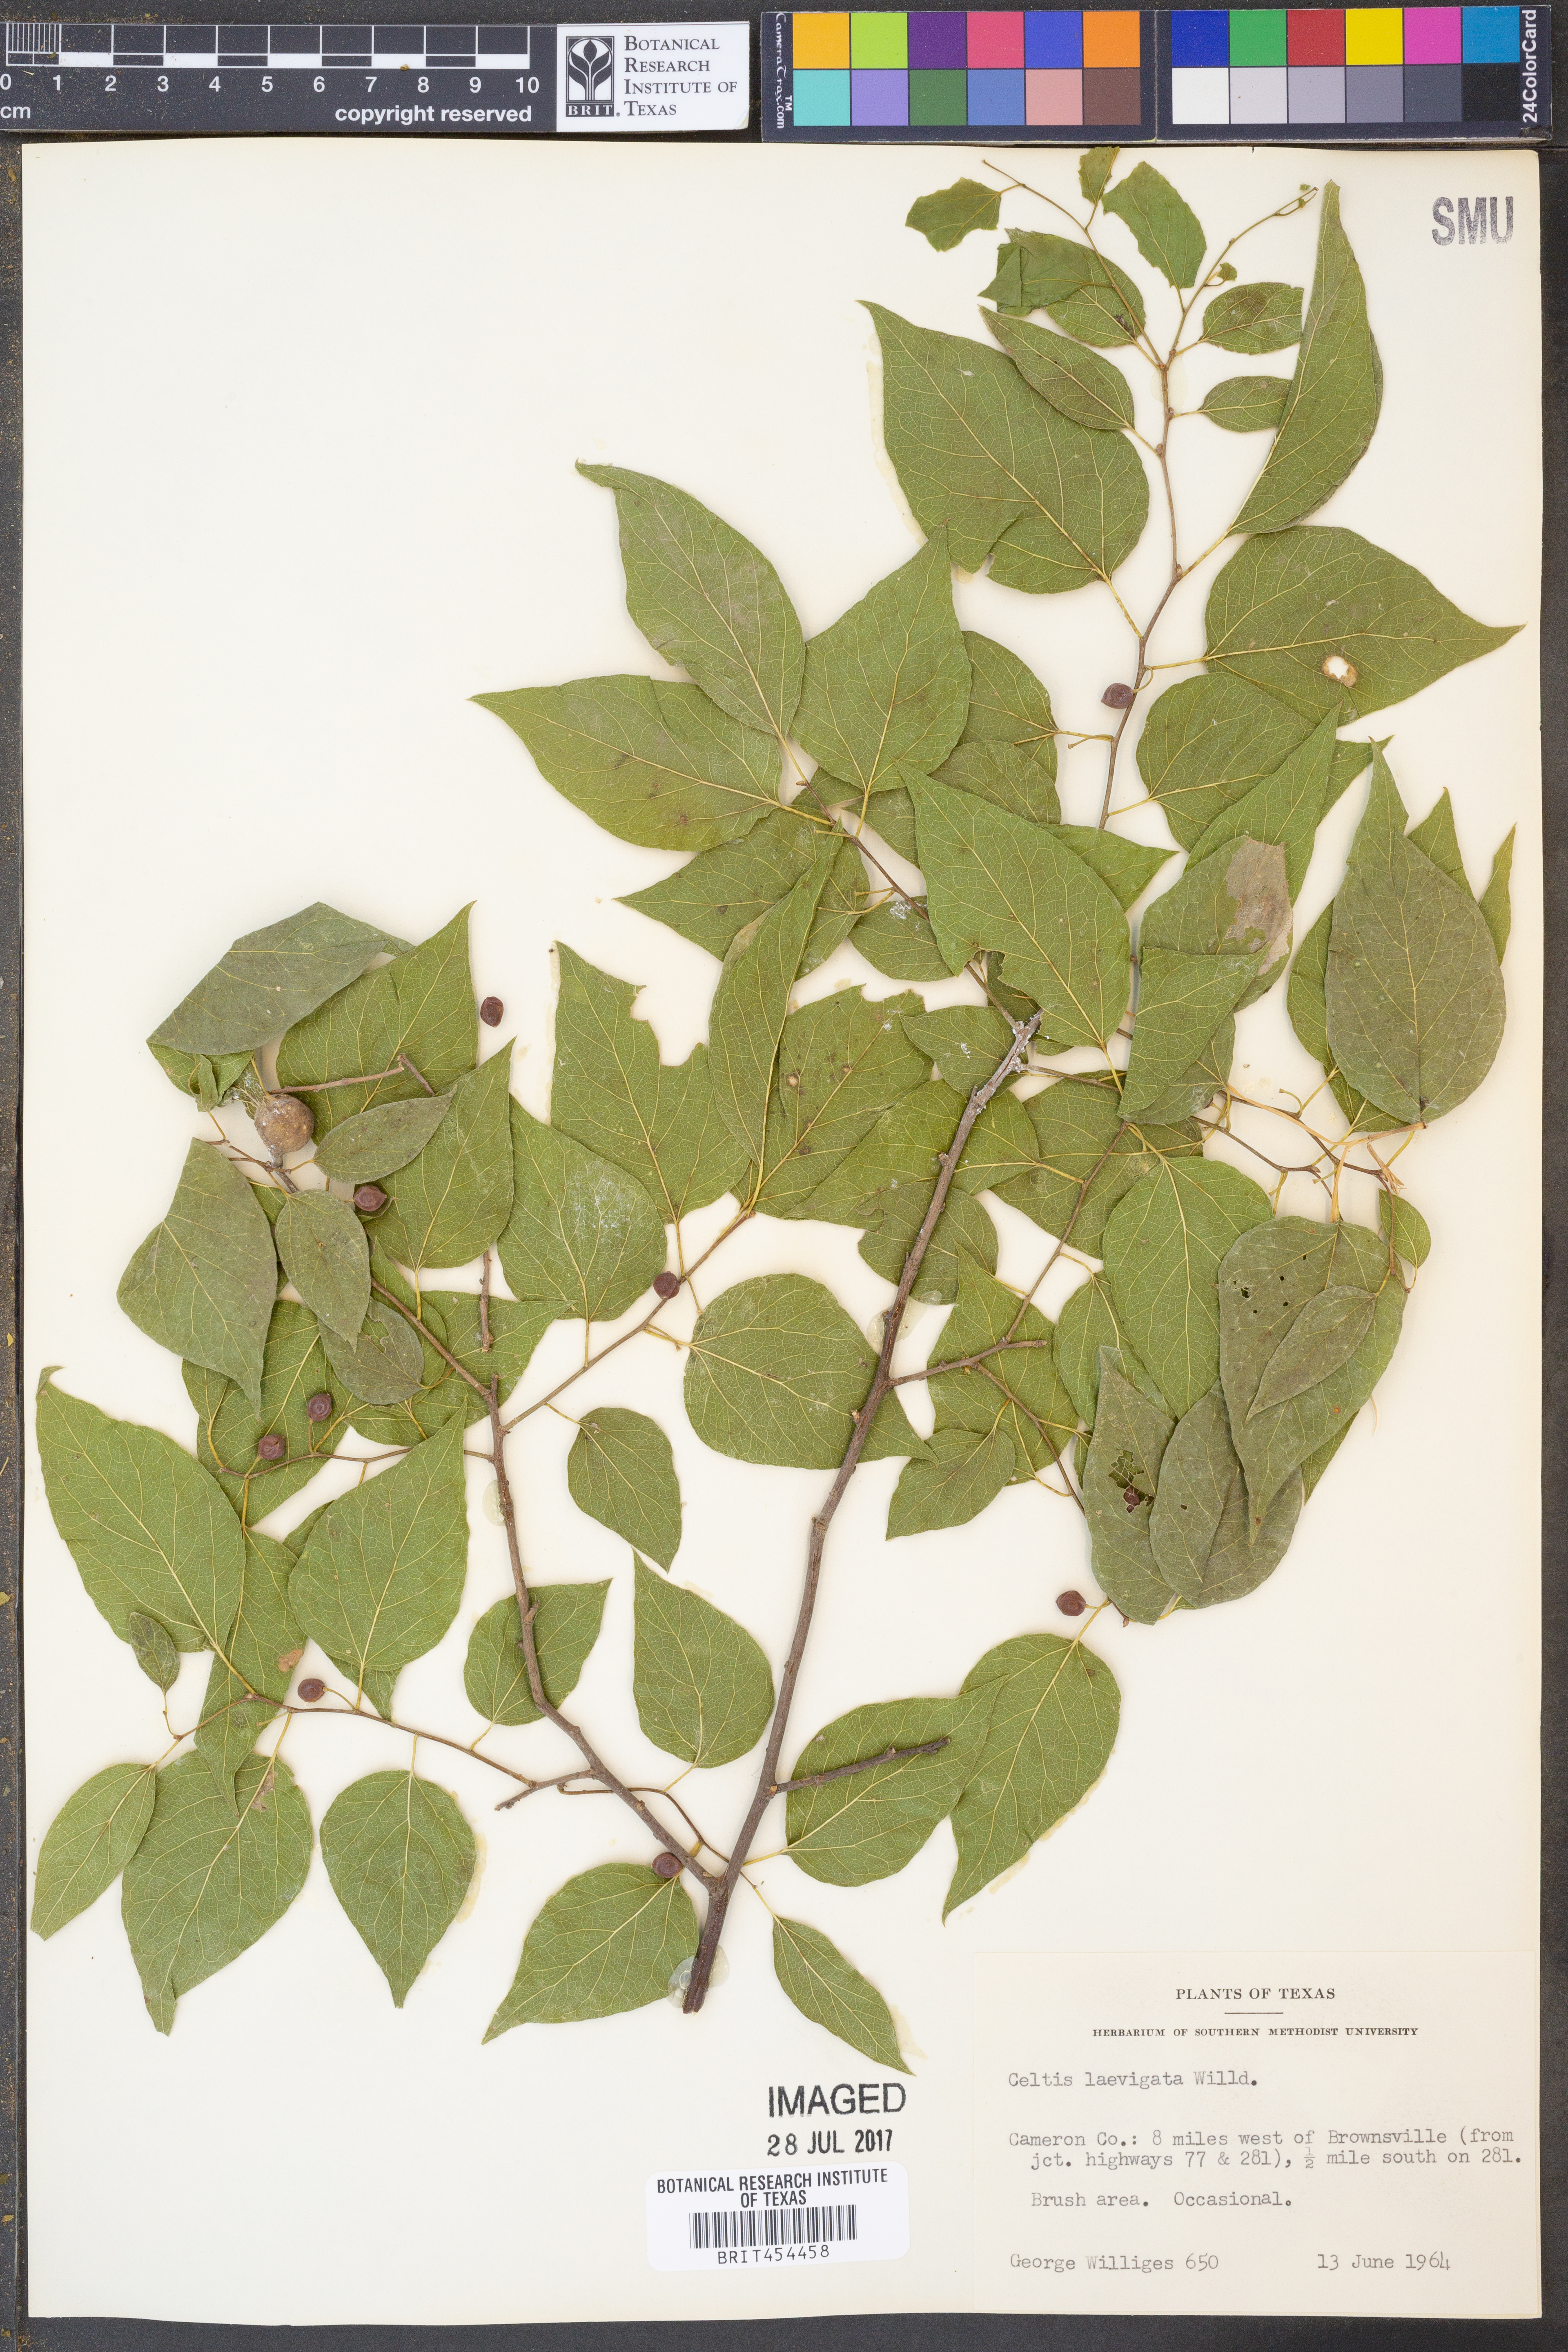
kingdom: Plantae
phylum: Tracheophyta
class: Magnoliopsida
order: Rosales
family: Cannabaceae
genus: Celtis
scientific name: Celtis laevigata
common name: Sugarberry
